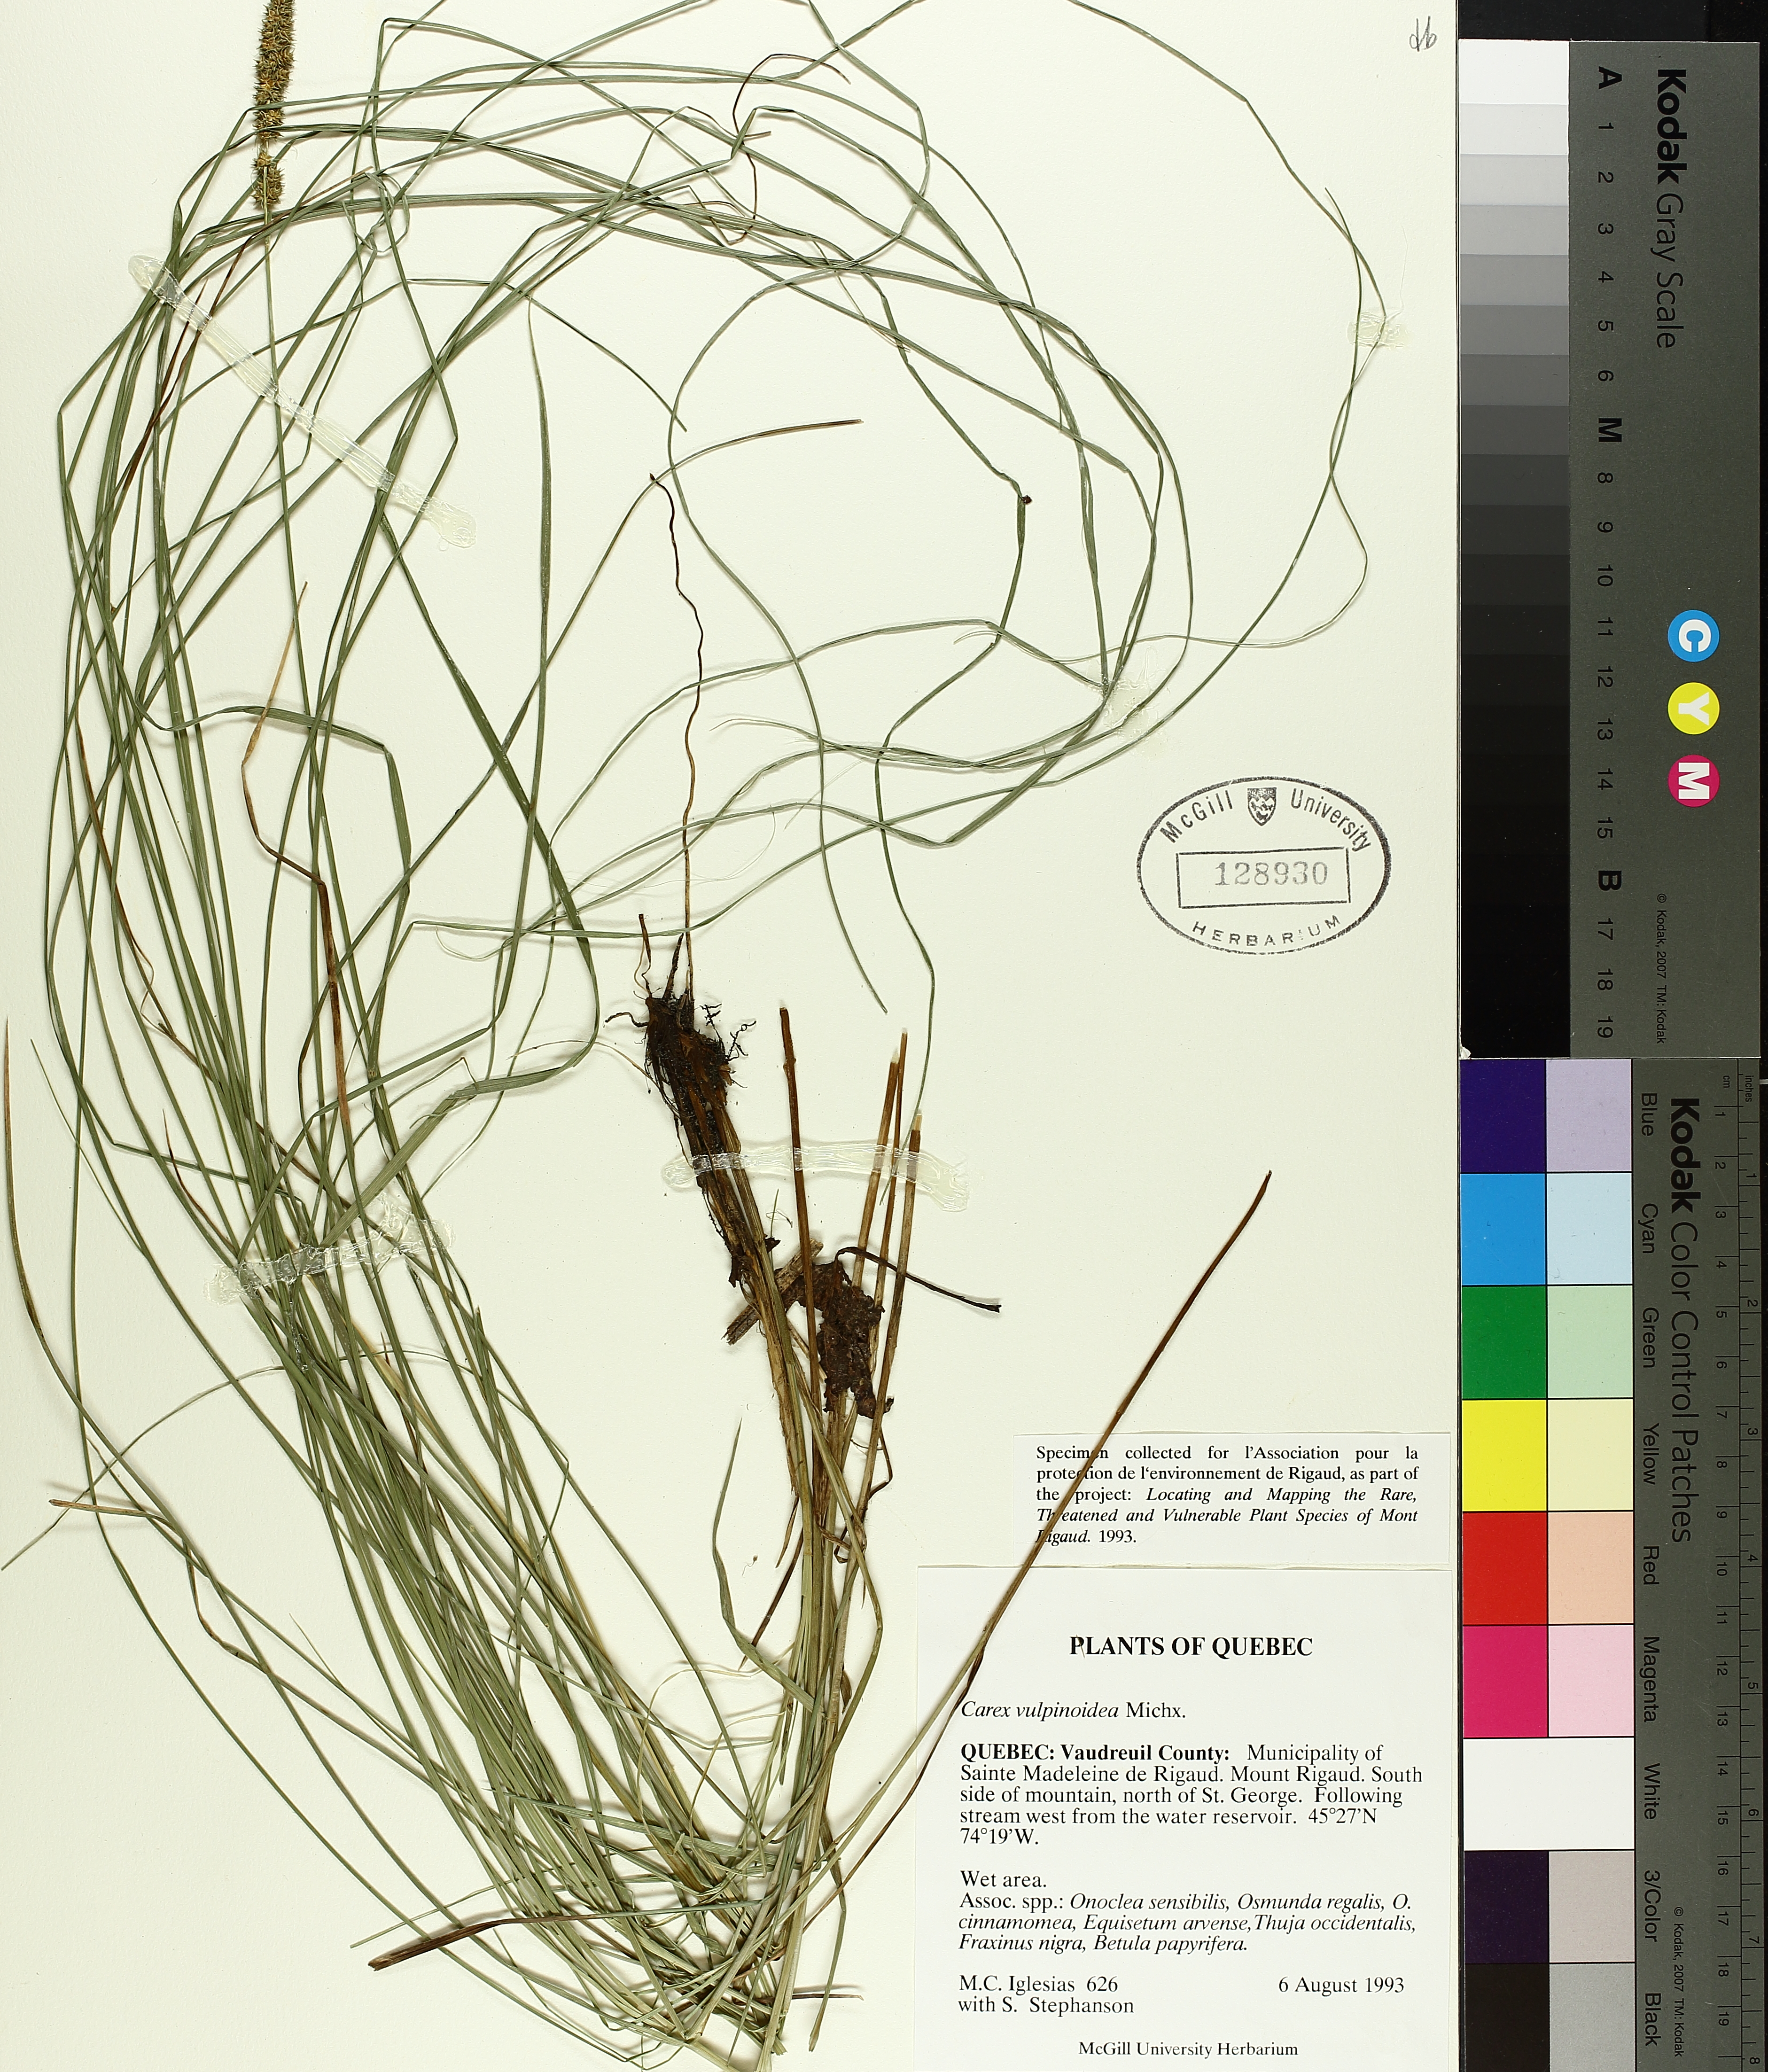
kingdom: Plantae
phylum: Tracheophyta
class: Liliopsida
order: Poales
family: Cyperaceae
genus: Carex
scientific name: Carex vulpinoidea
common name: American fox-sedge
